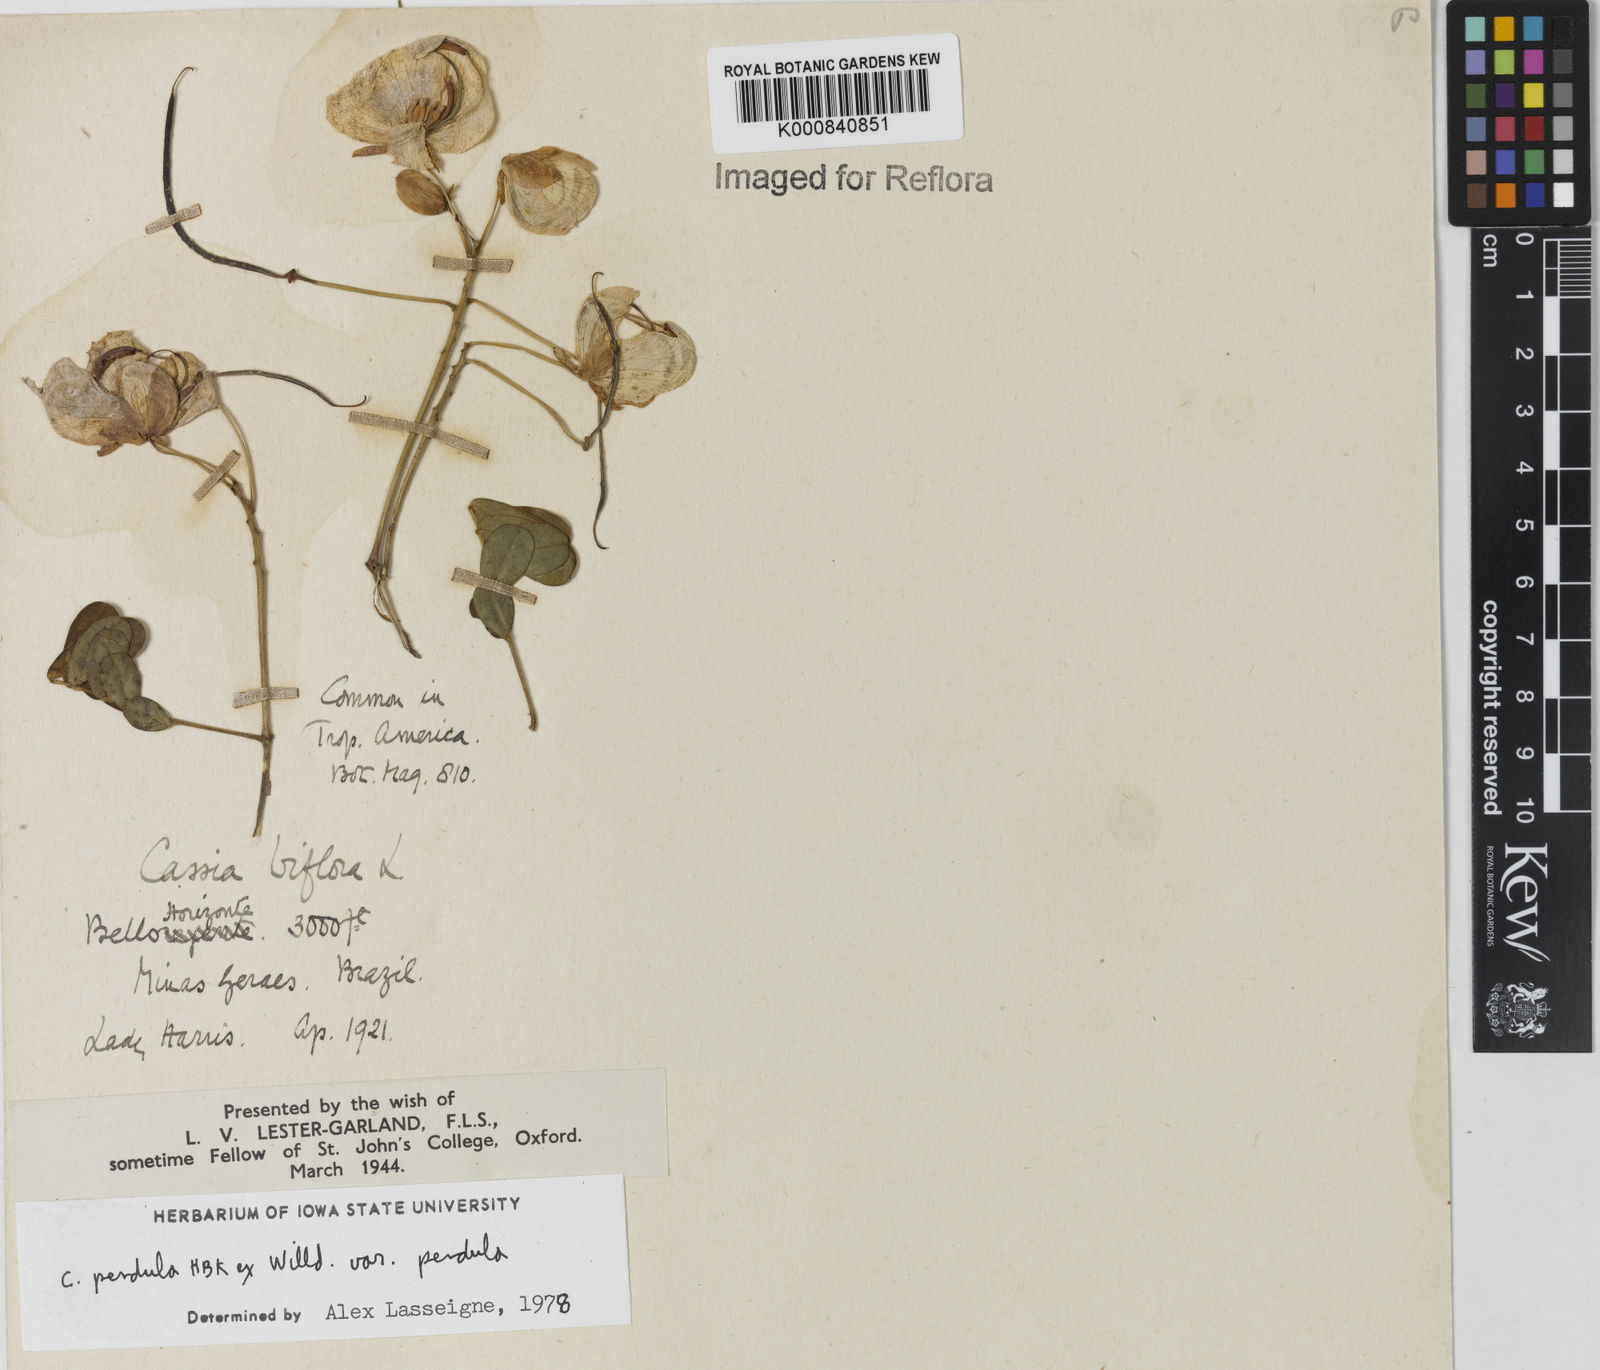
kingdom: Plantae
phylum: Tracheophyta
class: Magnoliopsida
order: Fabales
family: Fabaceae
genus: Senna
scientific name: Senna pendula
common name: Easter cassia
